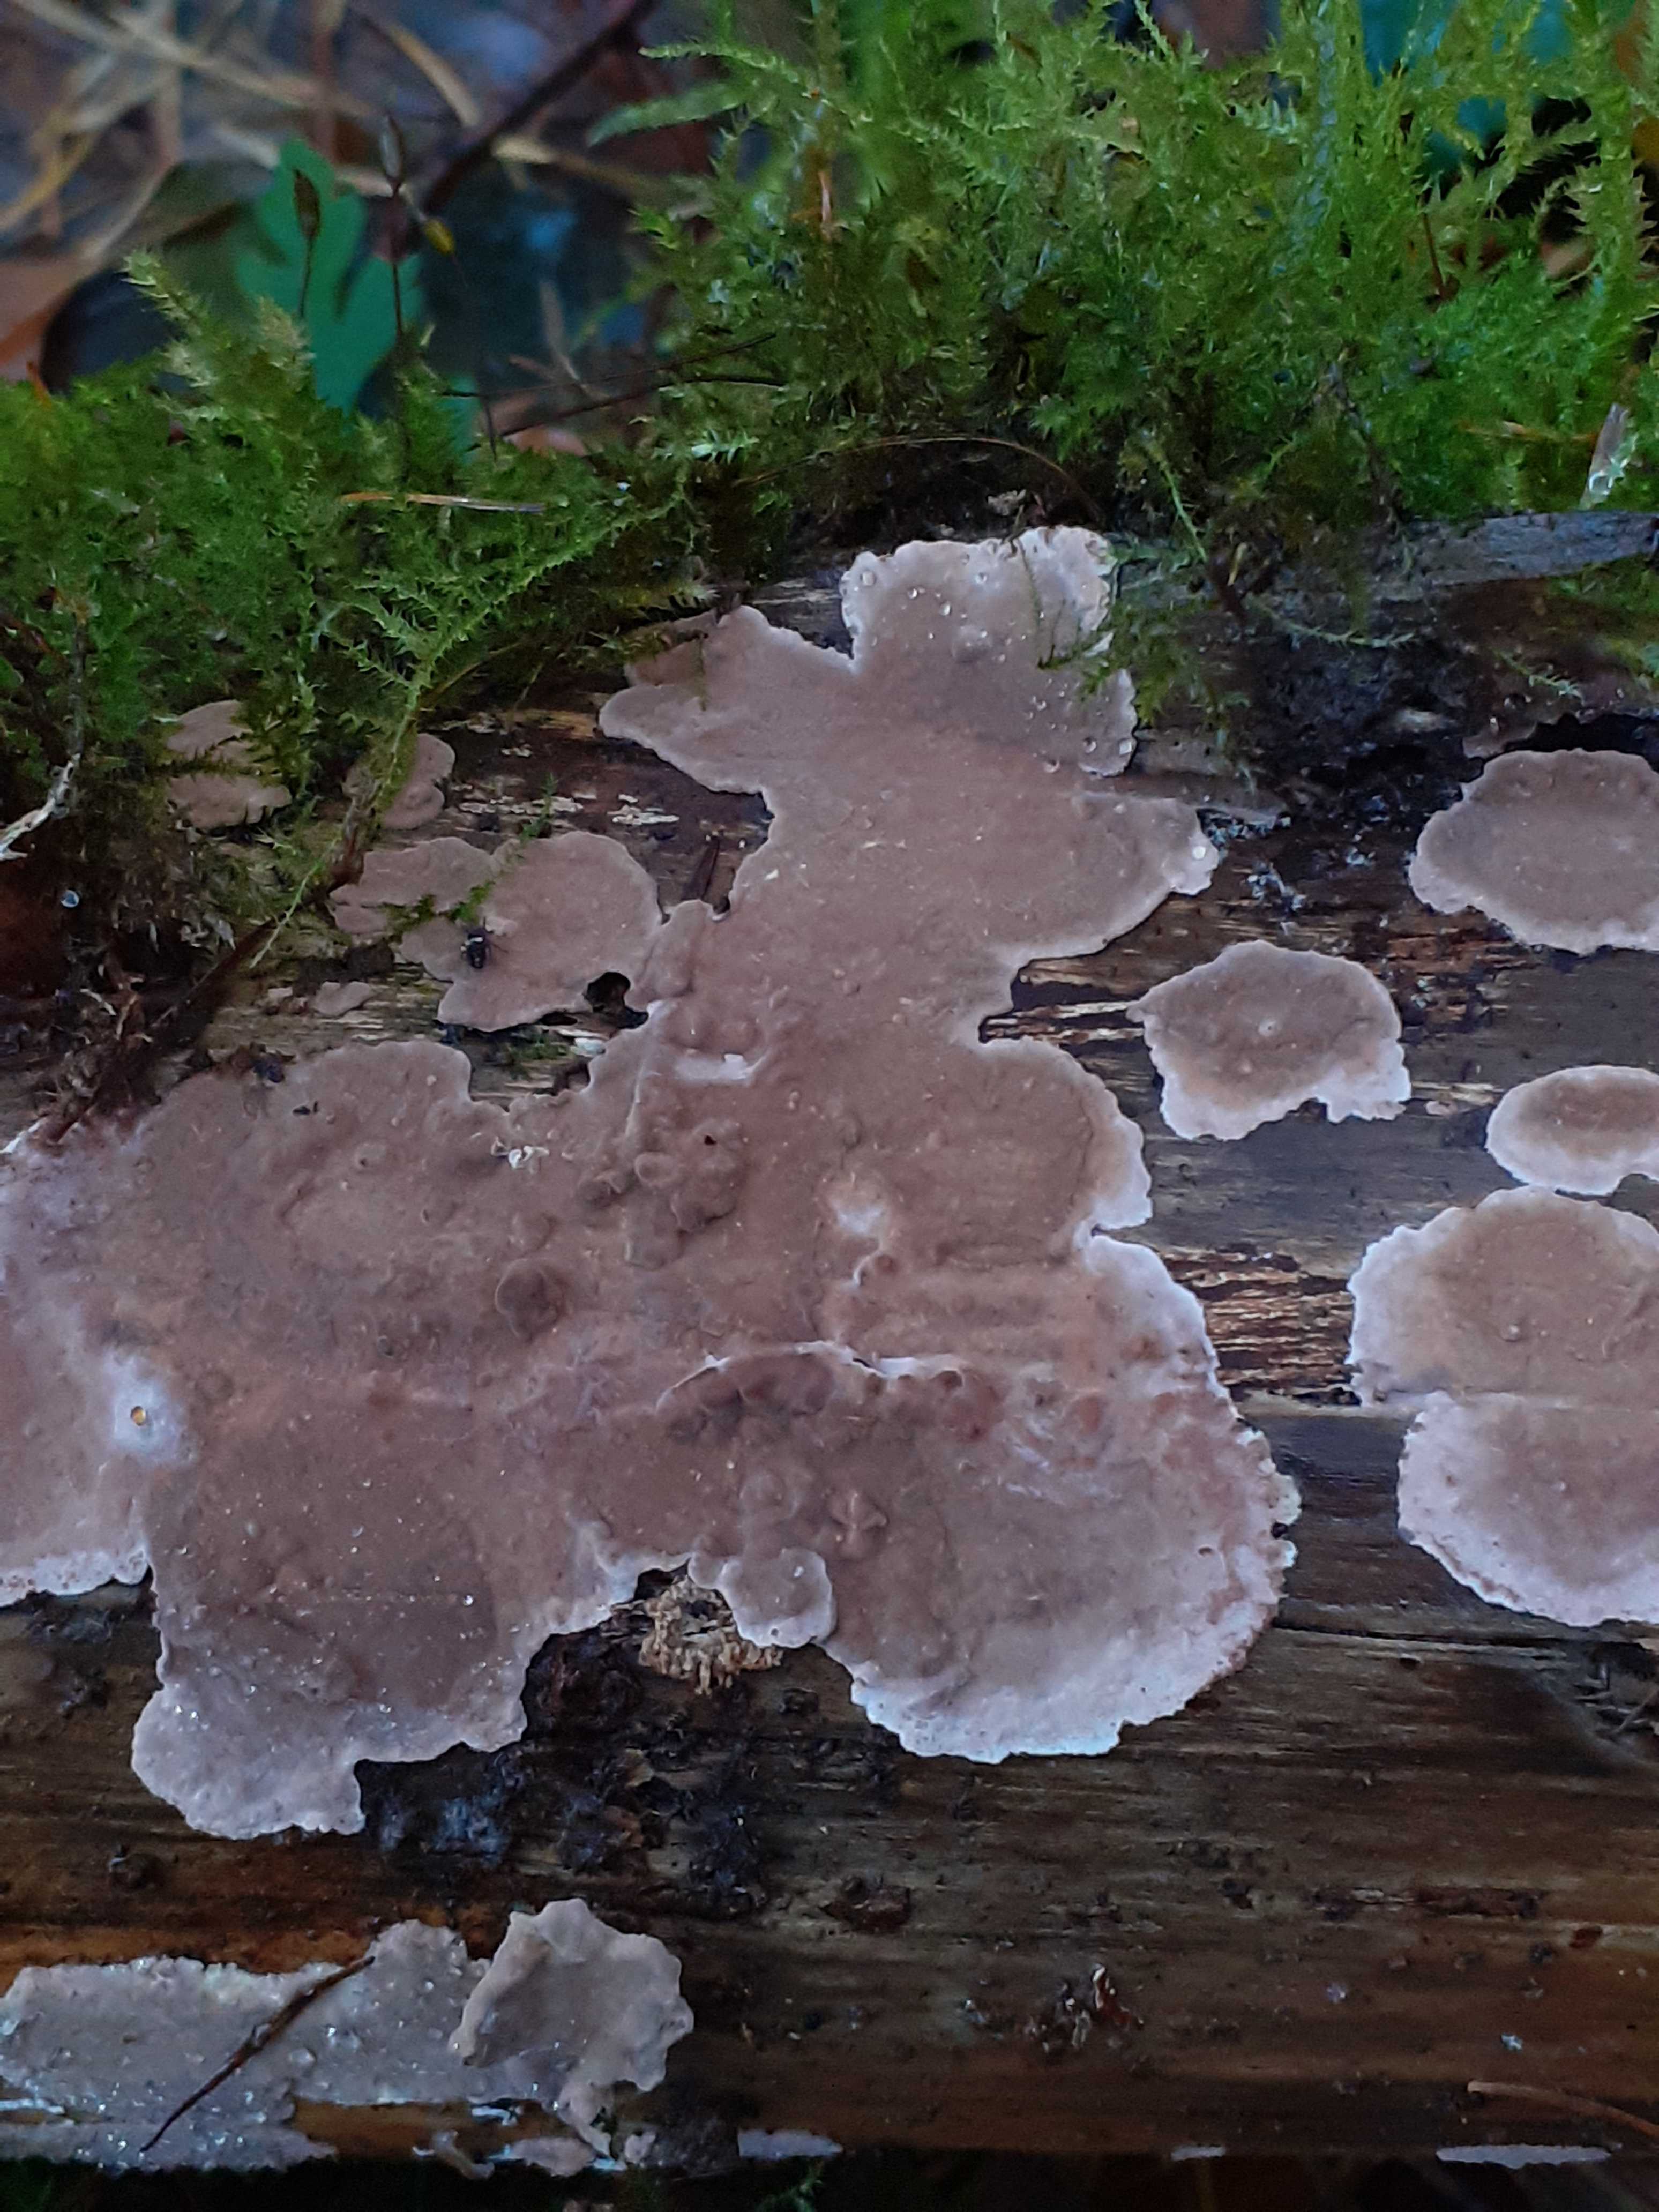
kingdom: Fungi
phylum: Basidiomycota
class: Agaricomycetes
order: Russulales
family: Echinodontiaceae
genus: Amylostereum
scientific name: Amylostereum chailletii
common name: gran-lædersvamp
